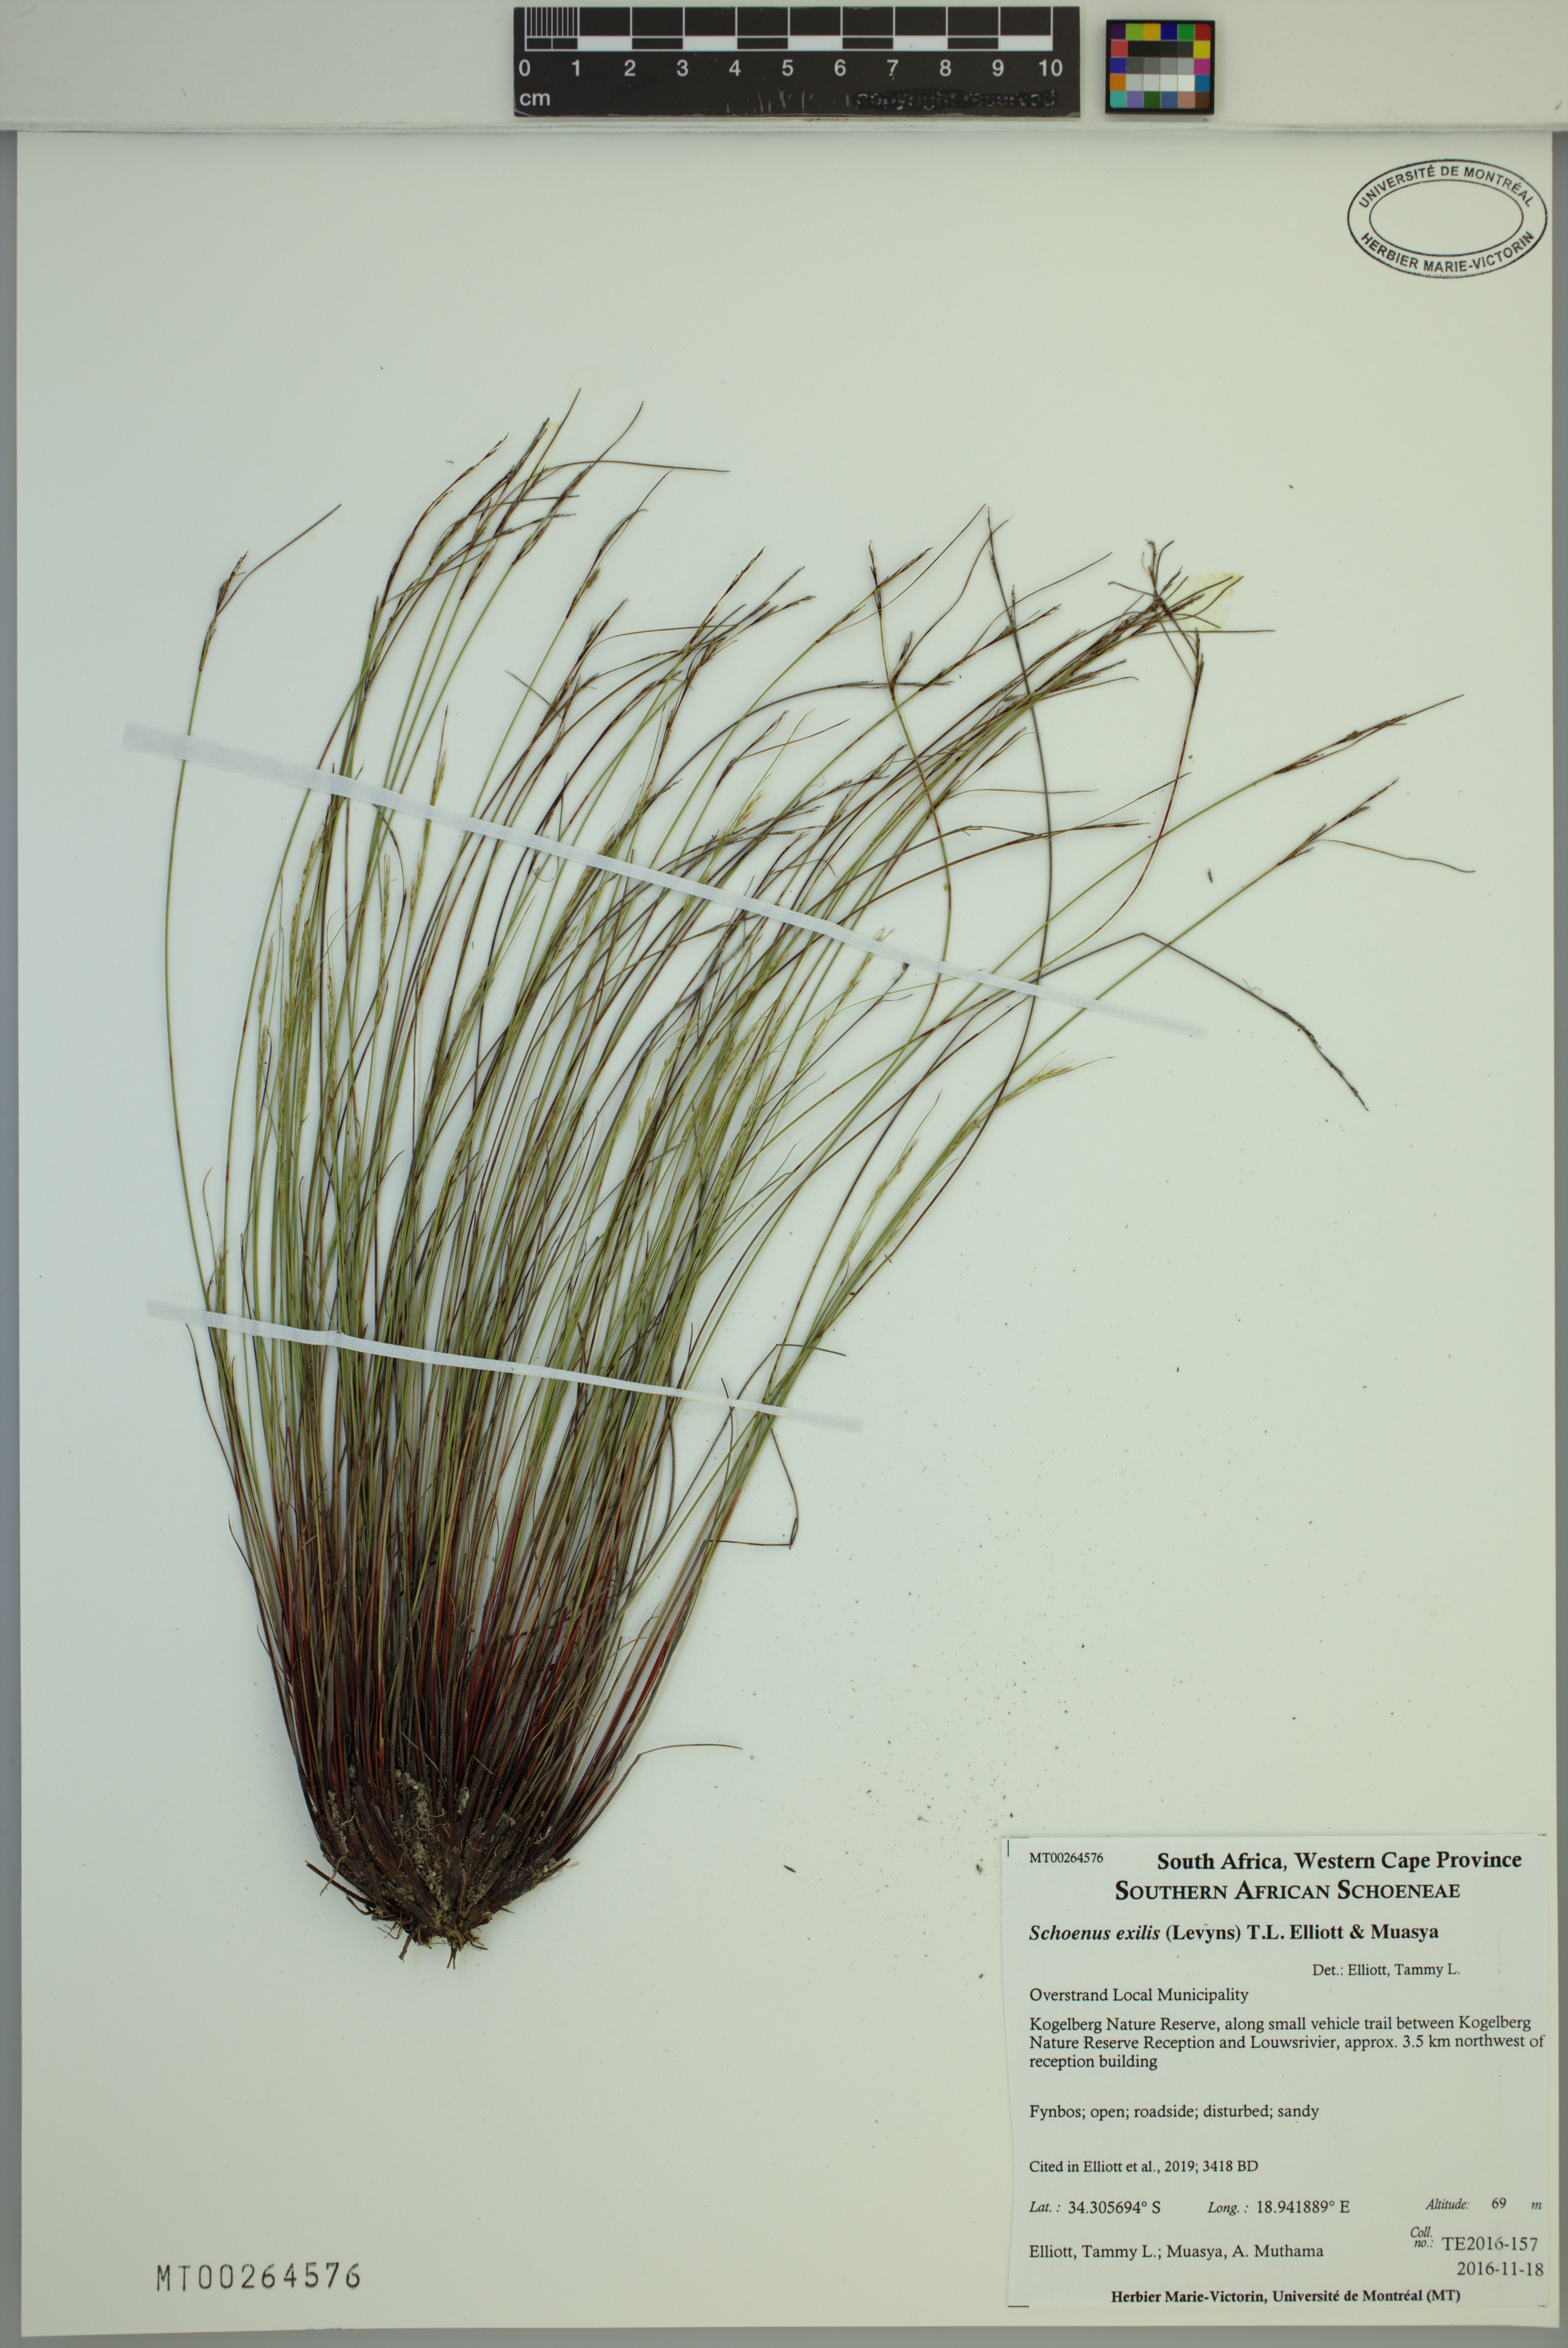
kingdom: Plantae
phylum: Tracheophyta
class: Liliopsida
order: Poales
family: Cyperaceae
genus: Schoenus
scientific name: Schoenus exilis
